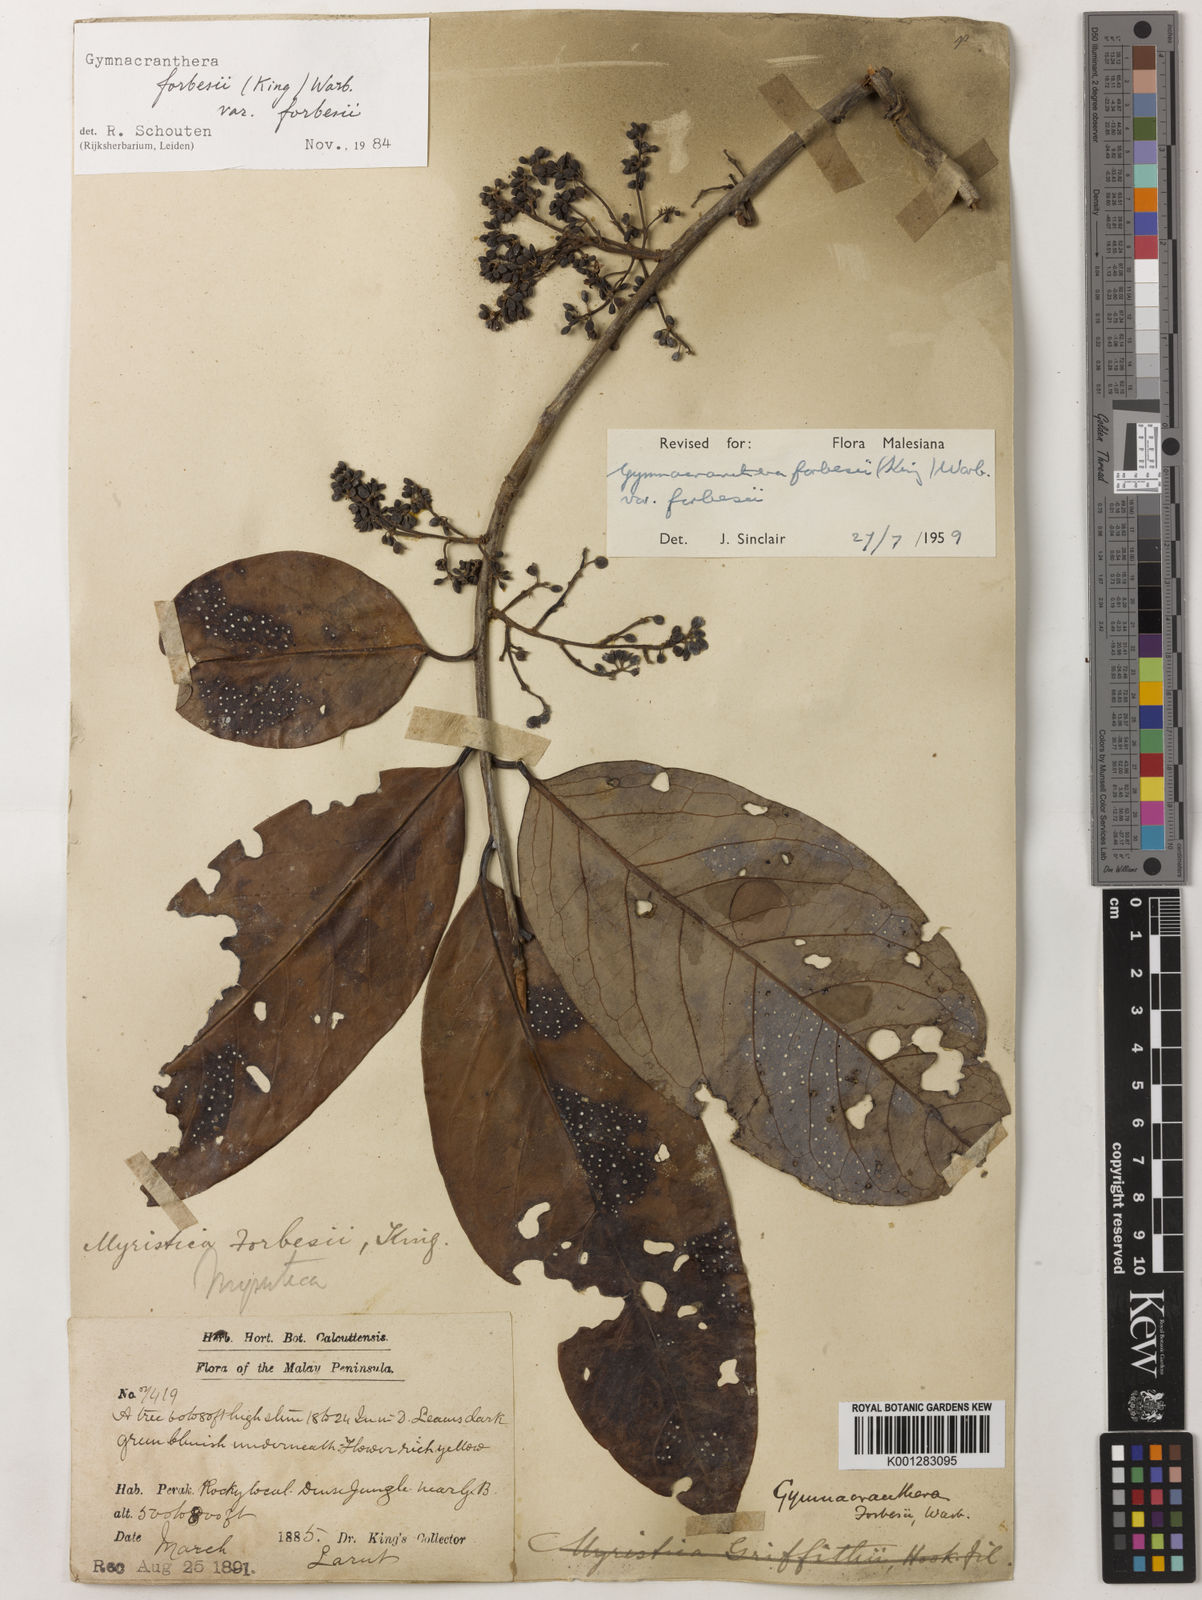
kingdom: Plantae
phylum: Tracheophyta
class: Magnoliopsida
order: Magnoliales
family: Myristicaceae
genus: Gymnacranthera
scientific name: Gymnacranthera forbesii
